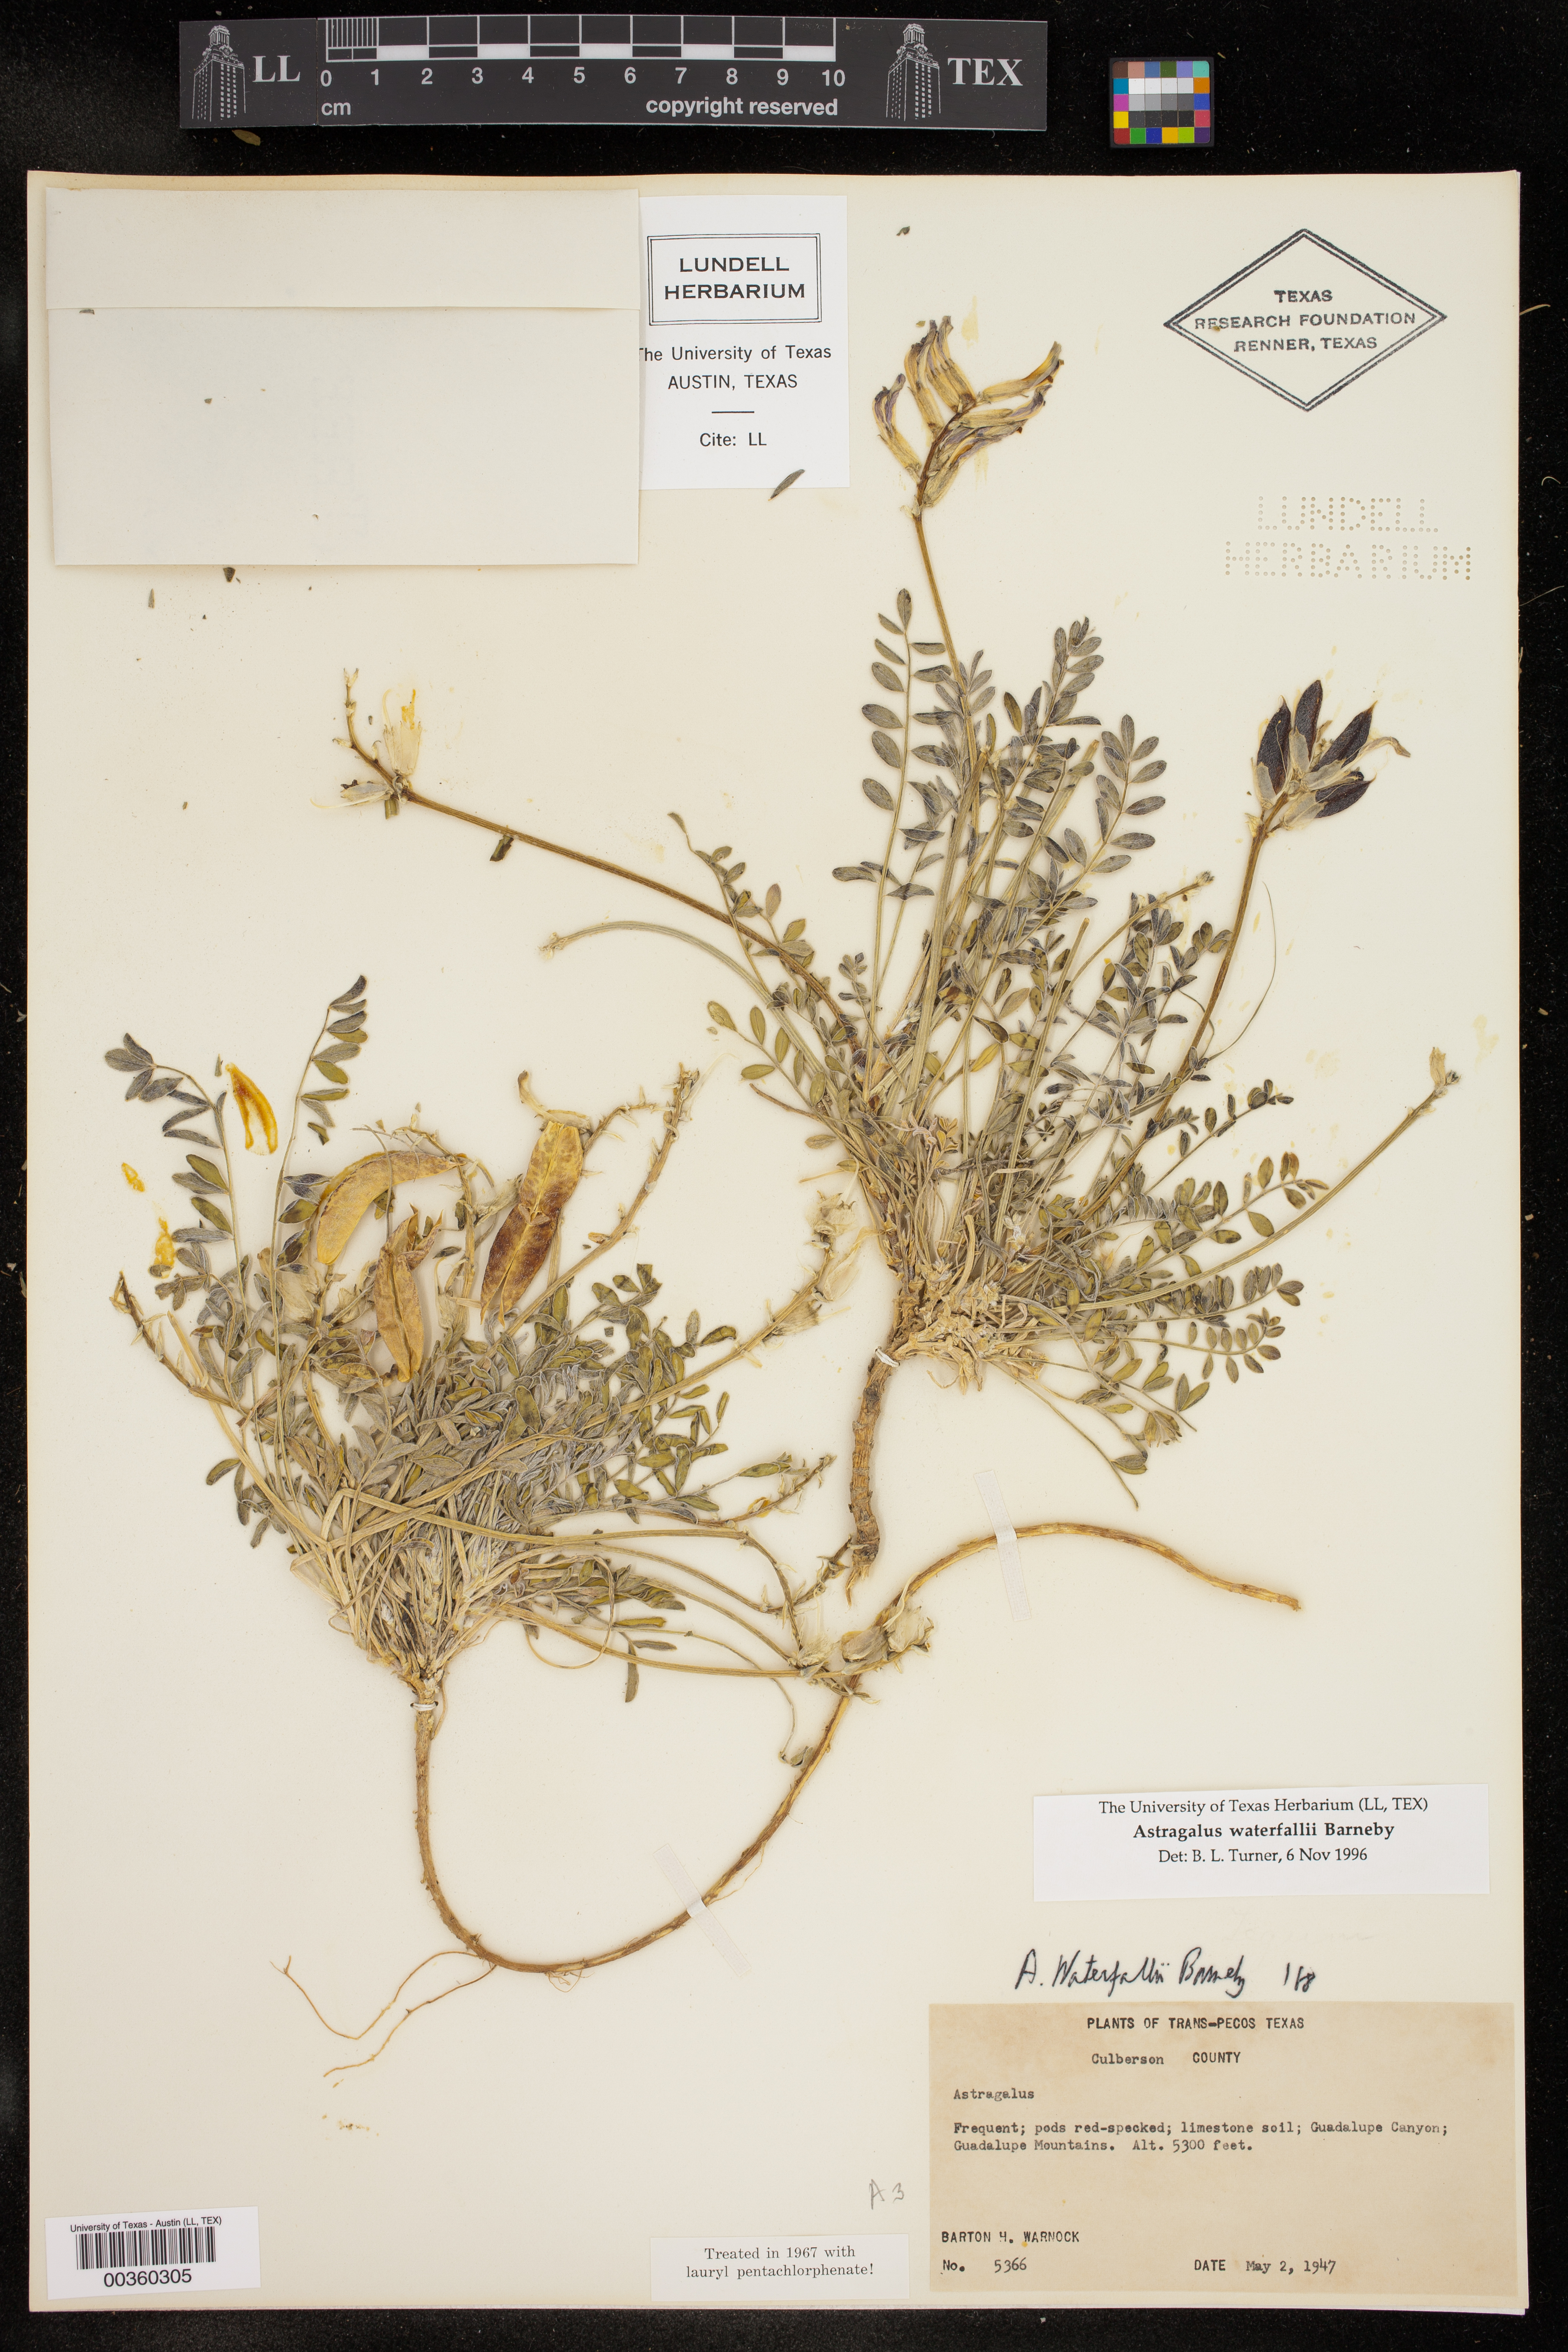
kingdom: Plantae
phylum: Tracheophyta
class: Magnoliopsida
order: Fabales
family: Fabaceae
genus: Astragalus
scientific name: Astragalus waterfallii
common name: Waterfall's milkvetch
